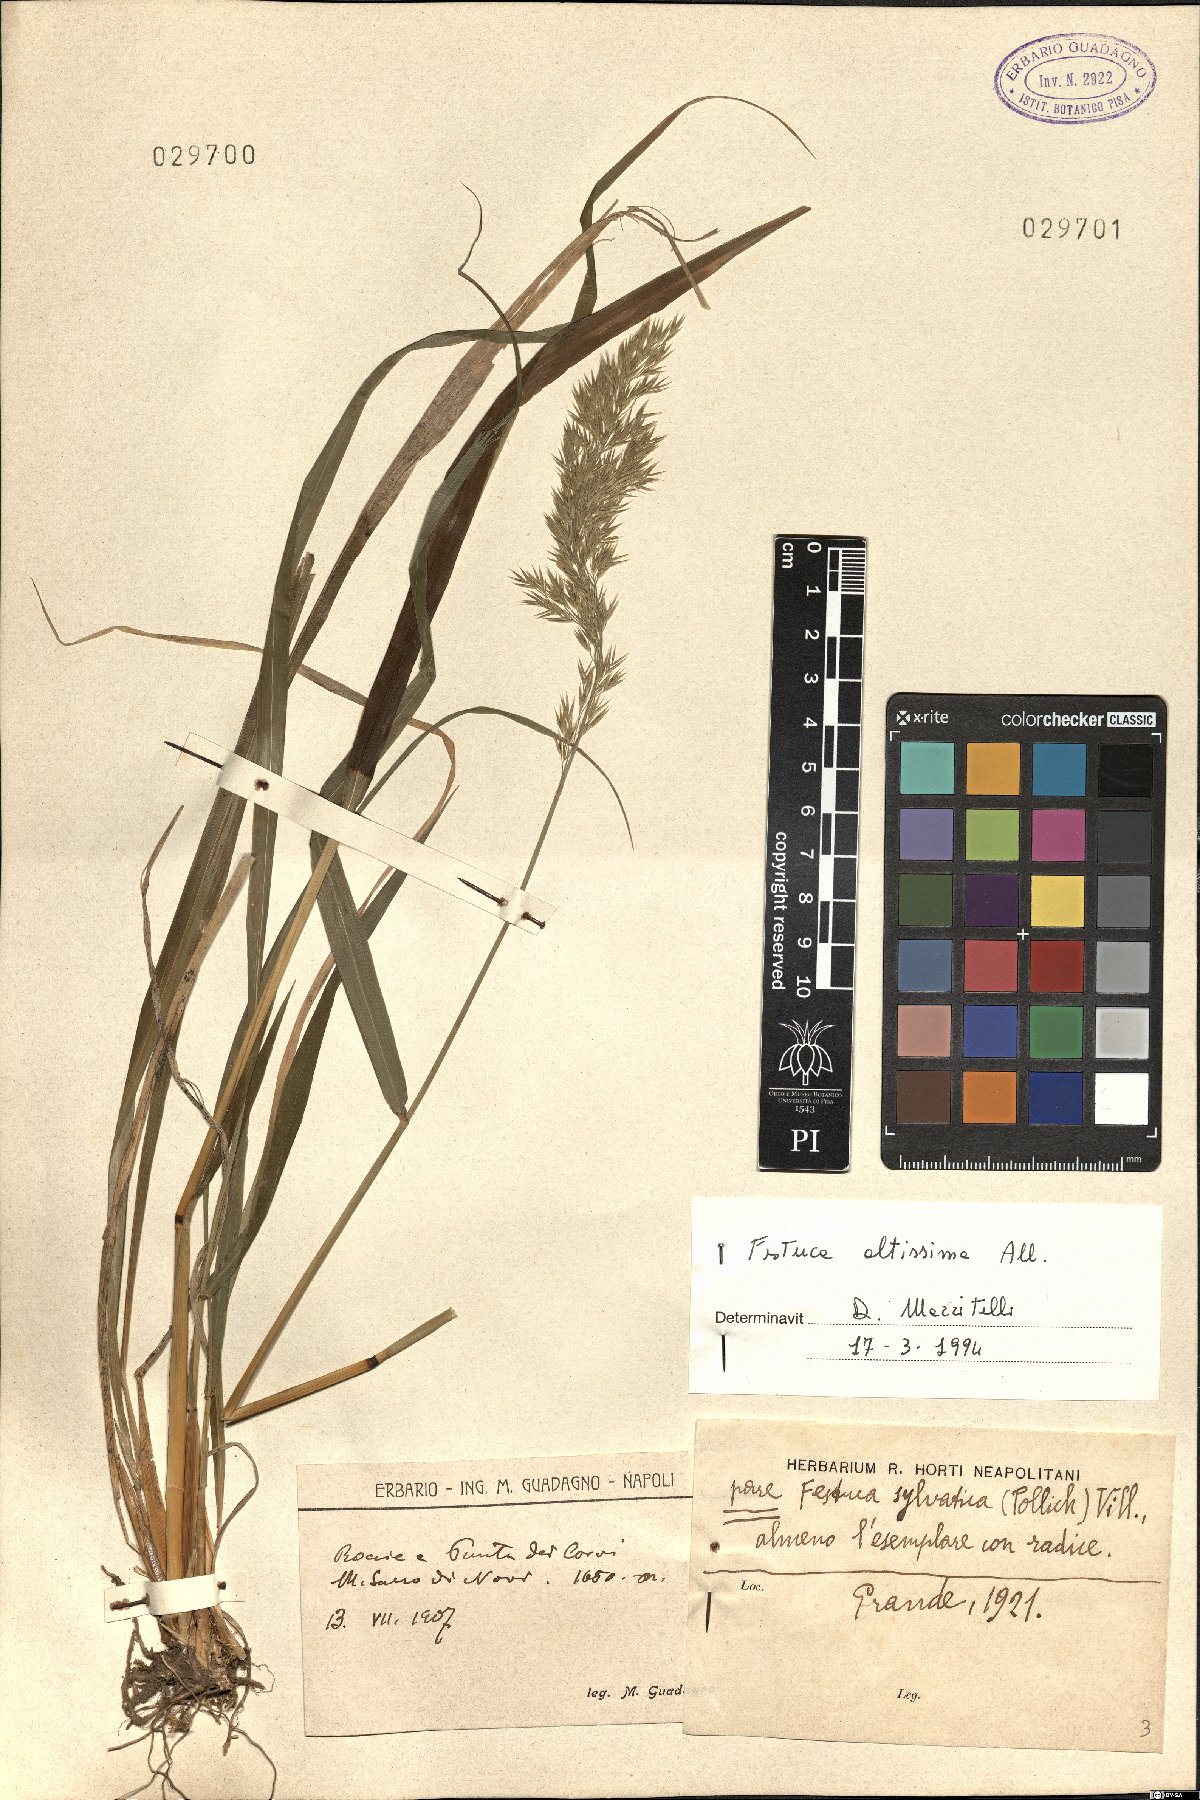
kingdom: Plantae
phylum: Tracheophyta
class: Liliopsida
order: Poales
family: Poaceae
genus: Festuca
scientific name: Festuca altissima
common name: Wood fescue
